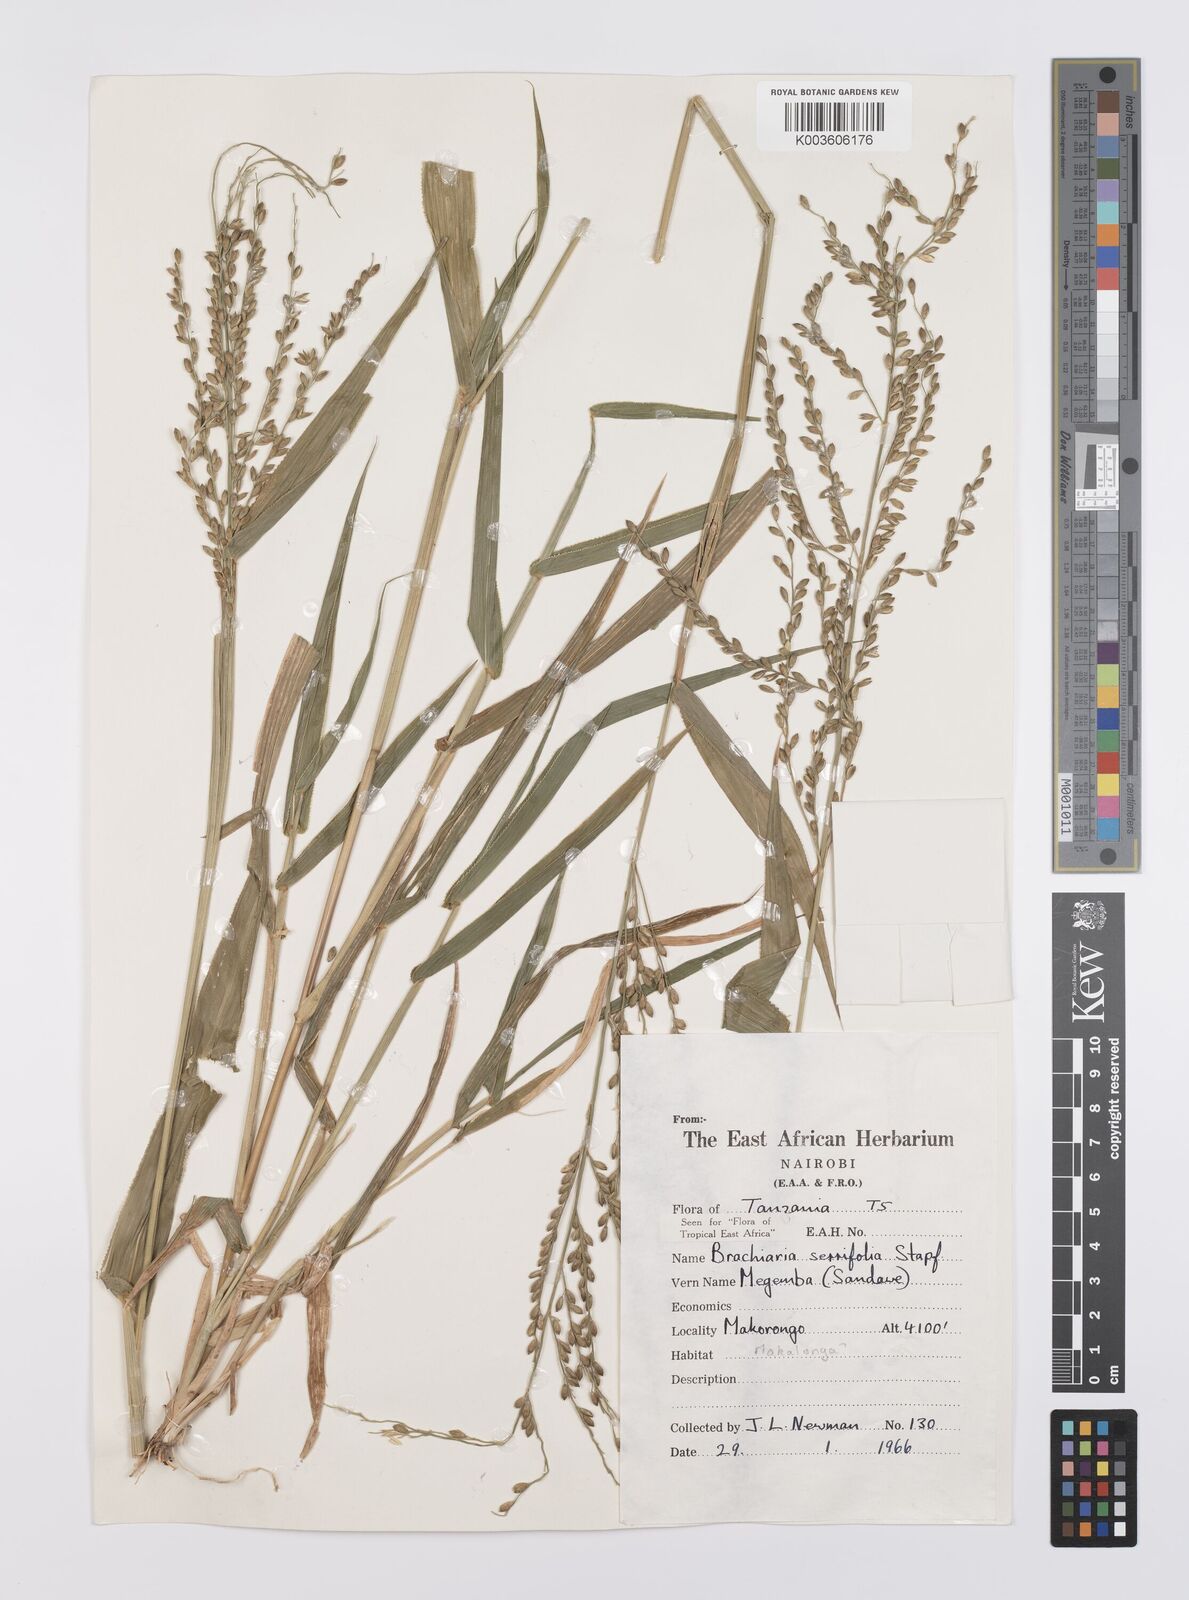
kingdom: Plantae
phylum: Tracheophyta
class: Liliopsida
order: Poales
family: Poaceae
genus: Urochloa
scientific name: Urochloa serrifolia
